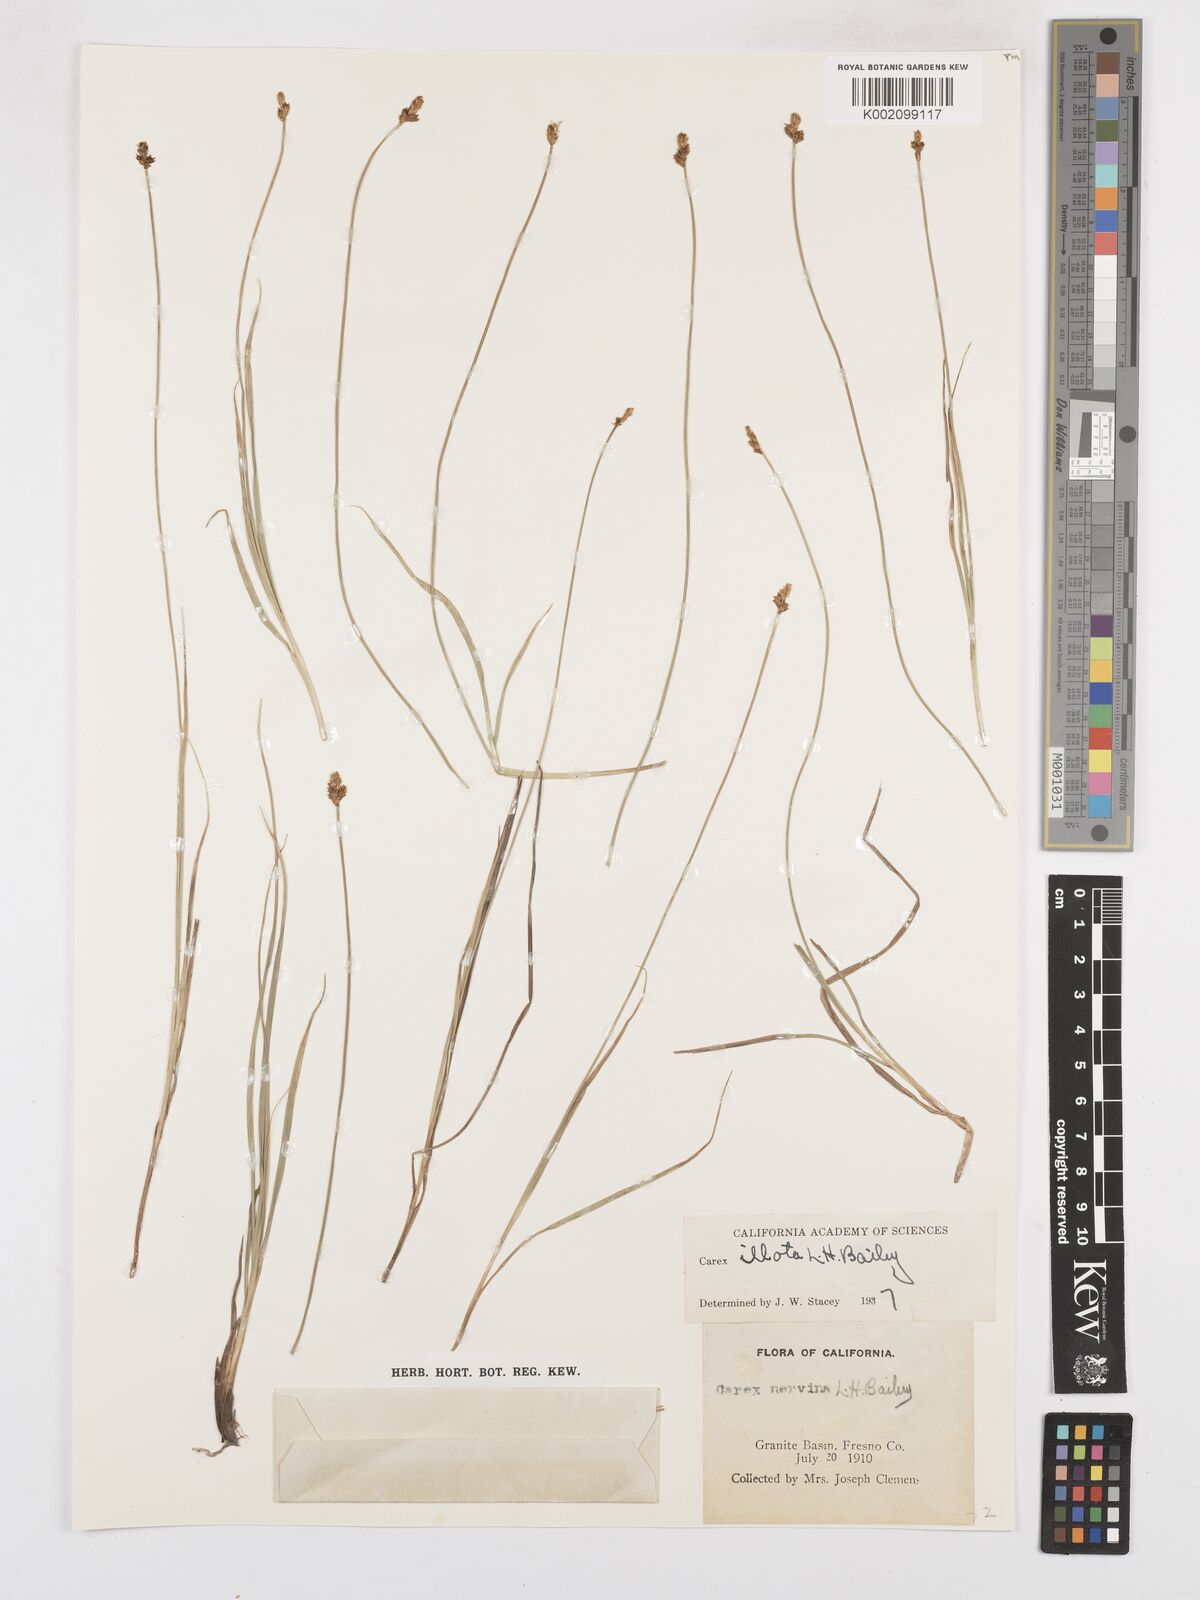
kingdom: Plantae
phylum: Tracheophyta
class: Liliopsida
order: Poales
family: Cyperaceae
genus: Carex
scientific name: Carex nervina
